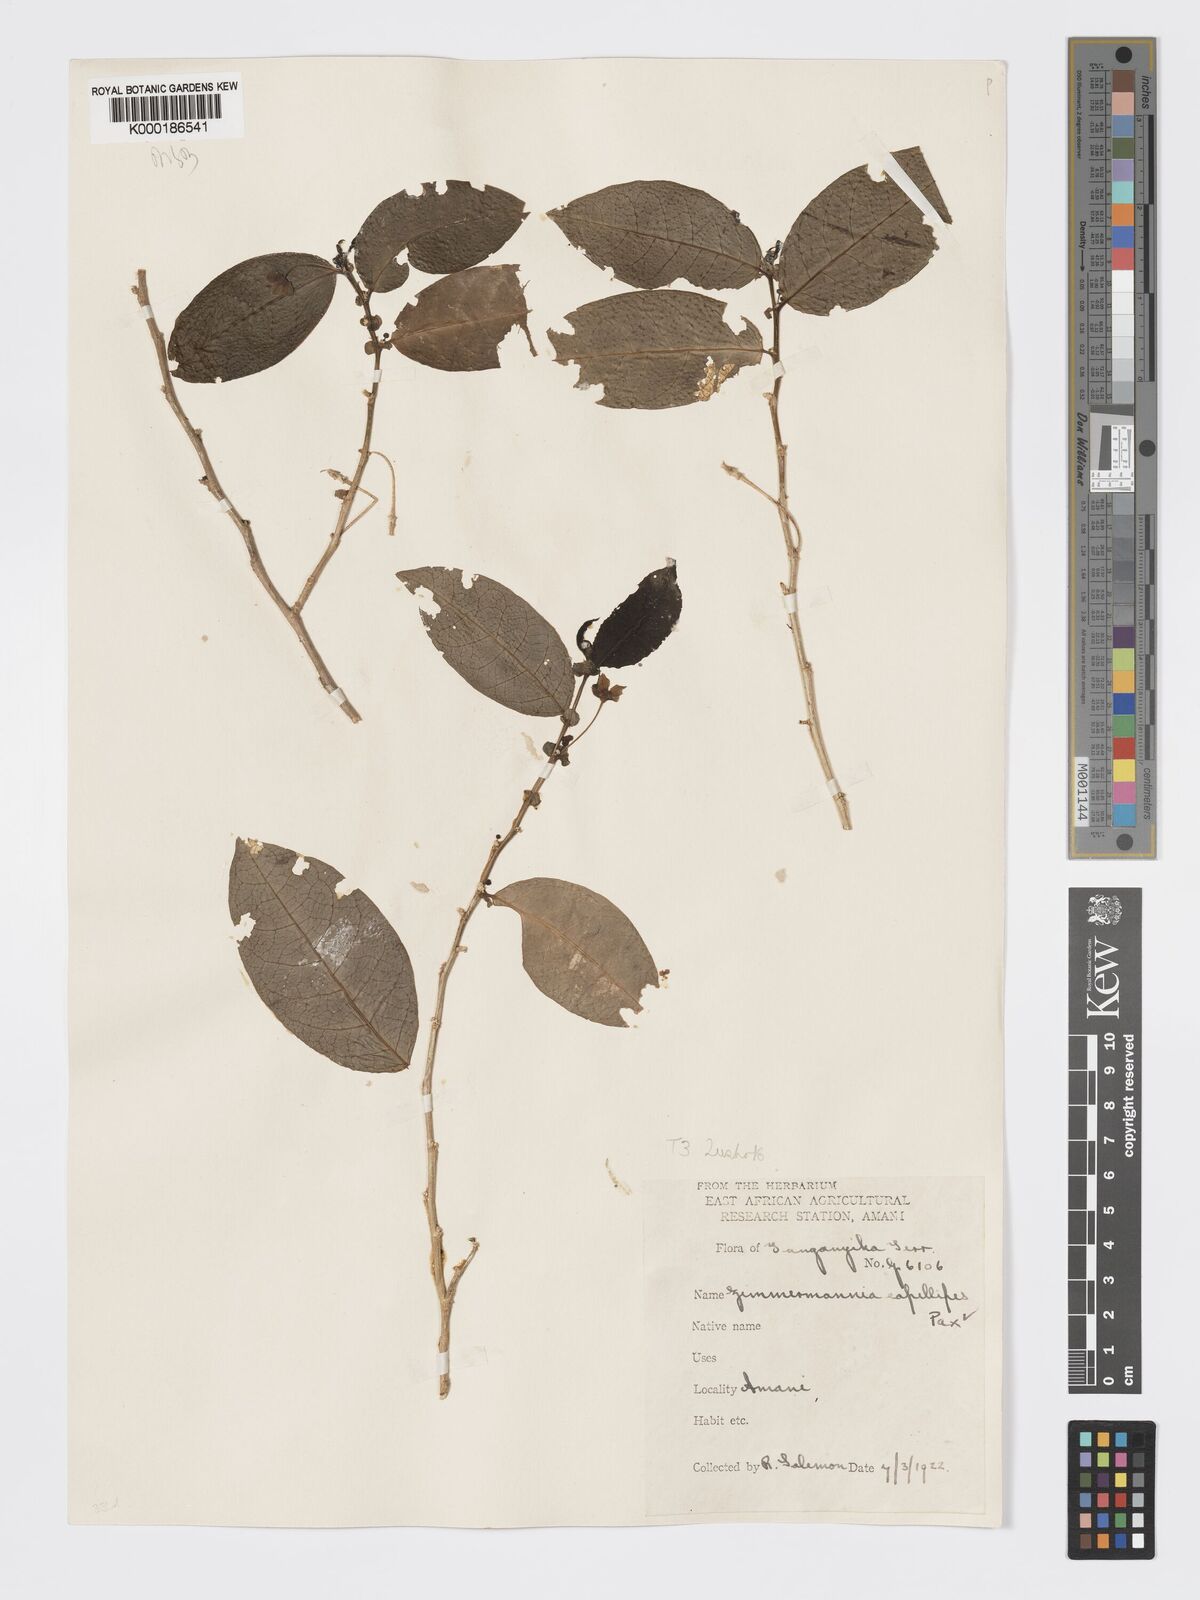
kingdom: Plantae
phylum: Tracheophyta
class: Magnoliopsida
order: Malpighiales
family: Phyllanthaceae
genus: Meineckia
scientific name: Meineckia paxii
